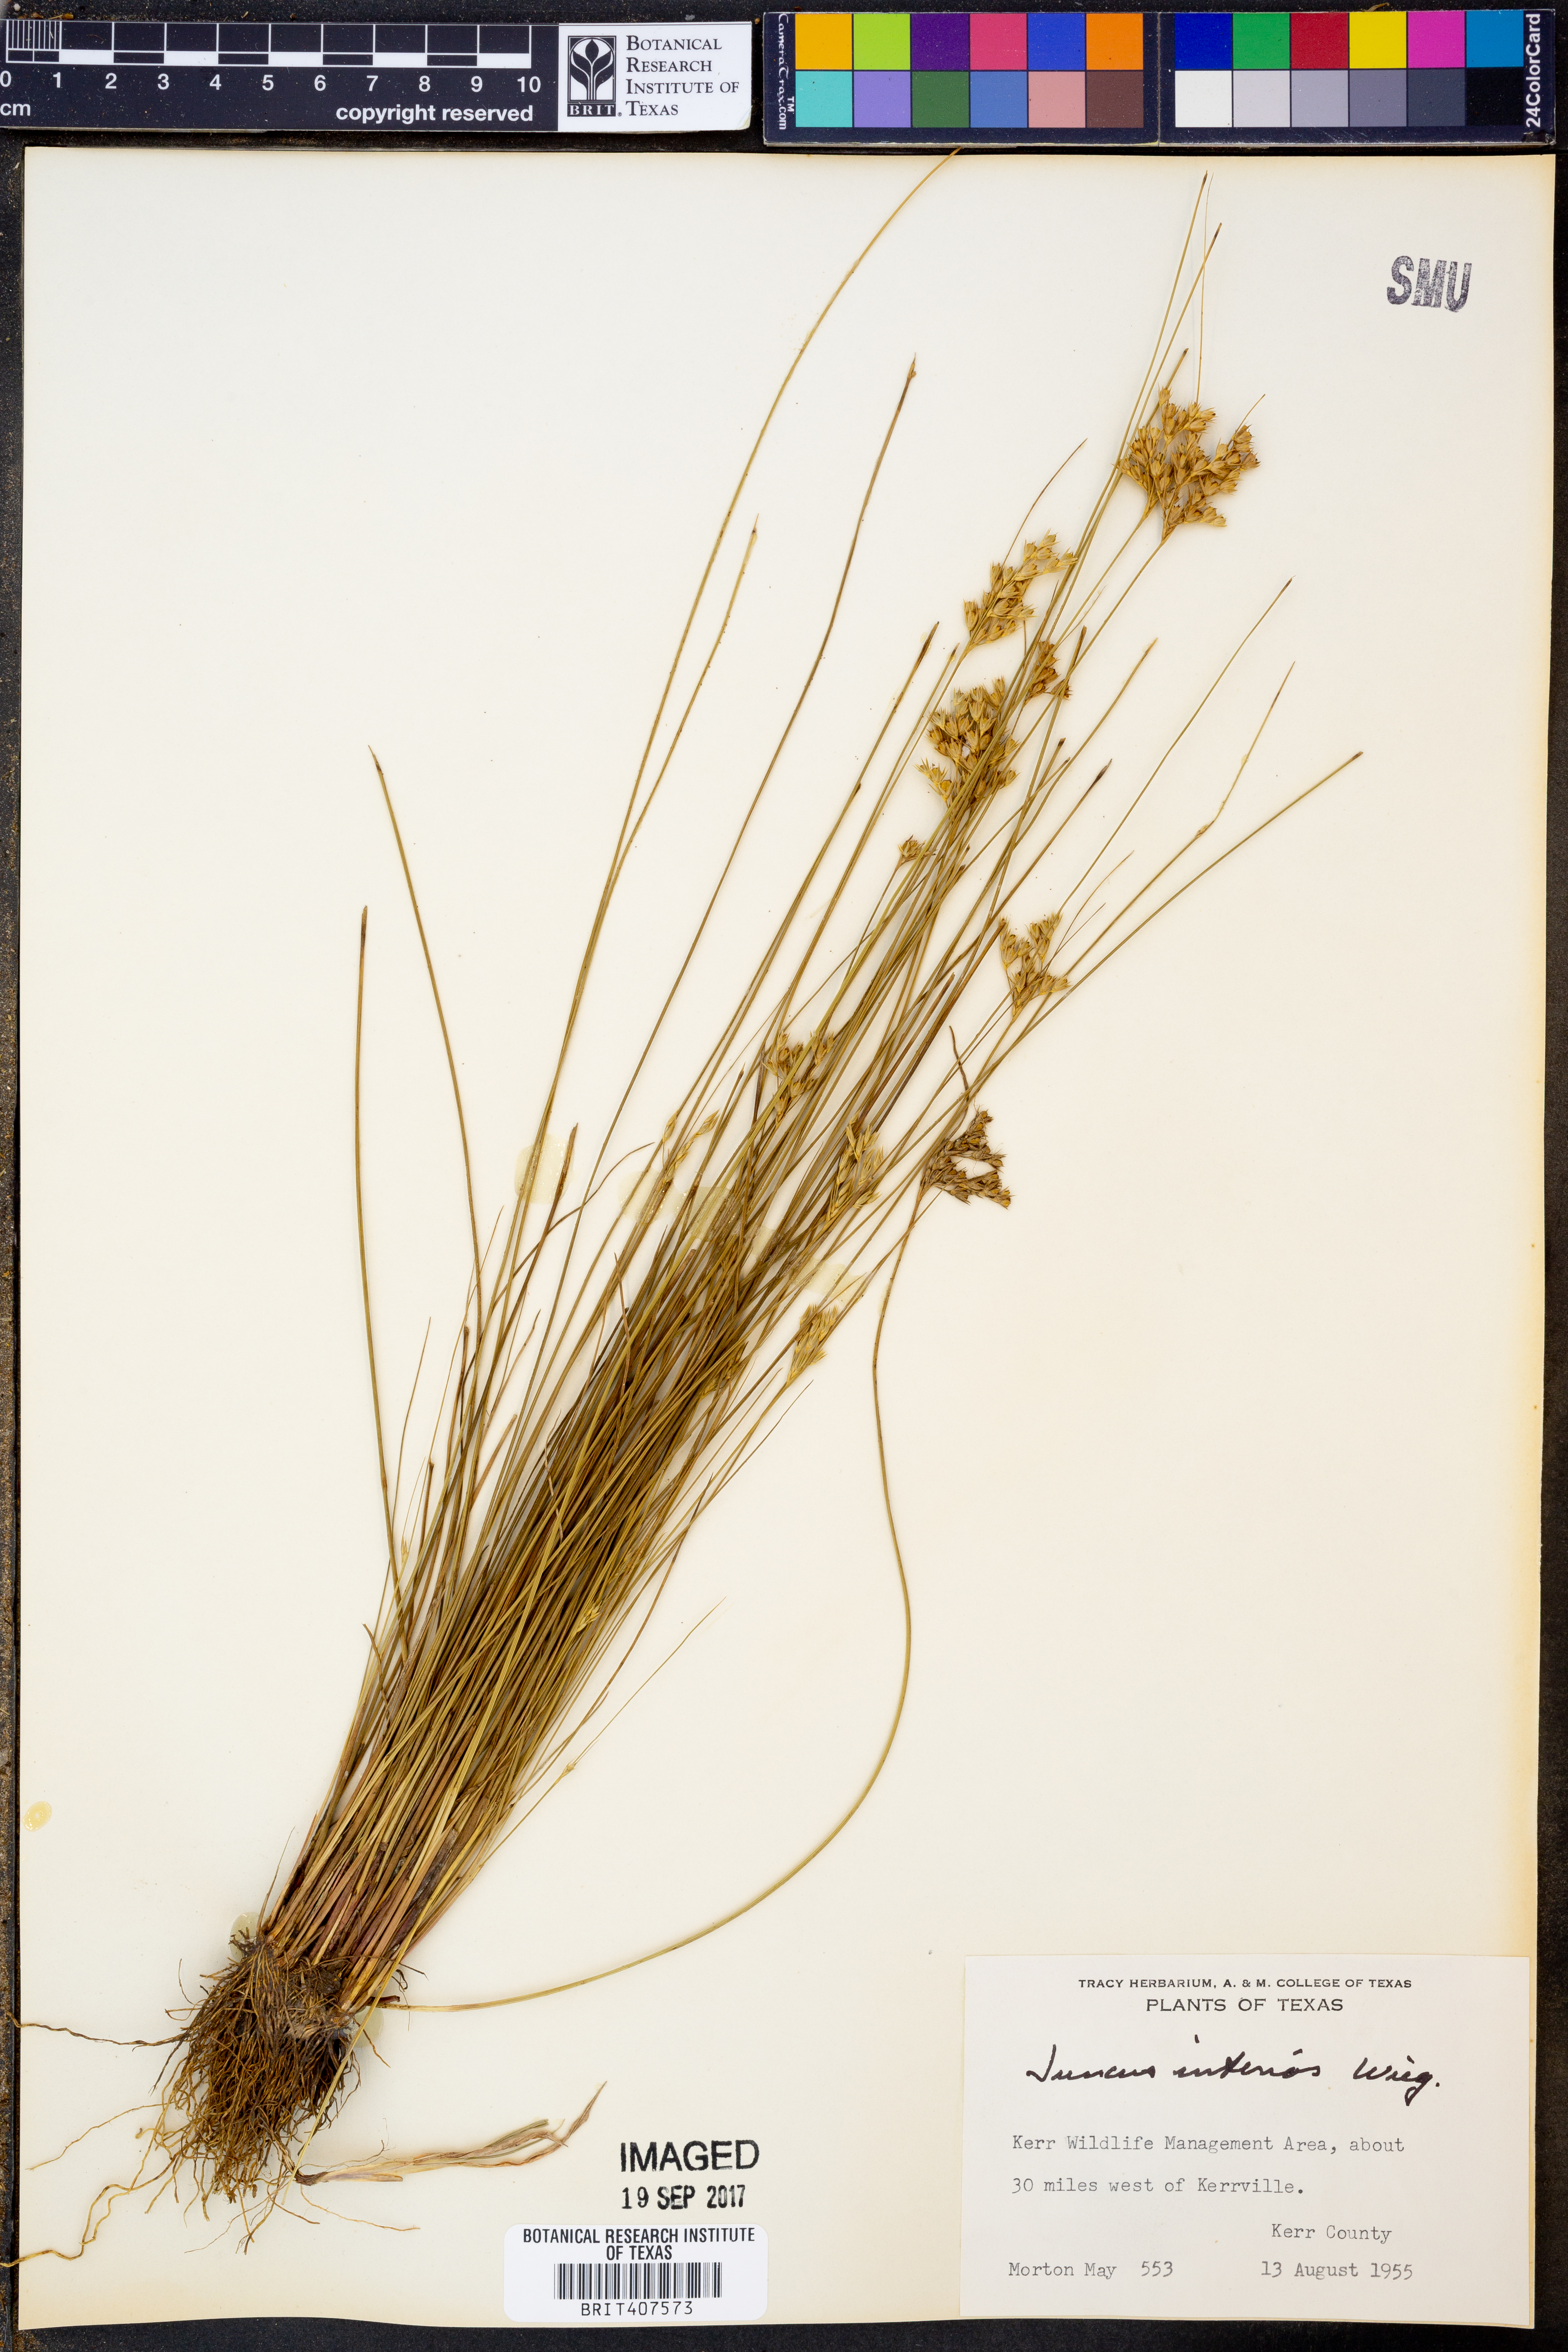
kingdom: Plantae
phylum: Tracheophyta
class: Liliopsida
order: Poales
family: Juncaceae
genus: Juncus
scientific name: Juncus interior
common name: Interior rush
